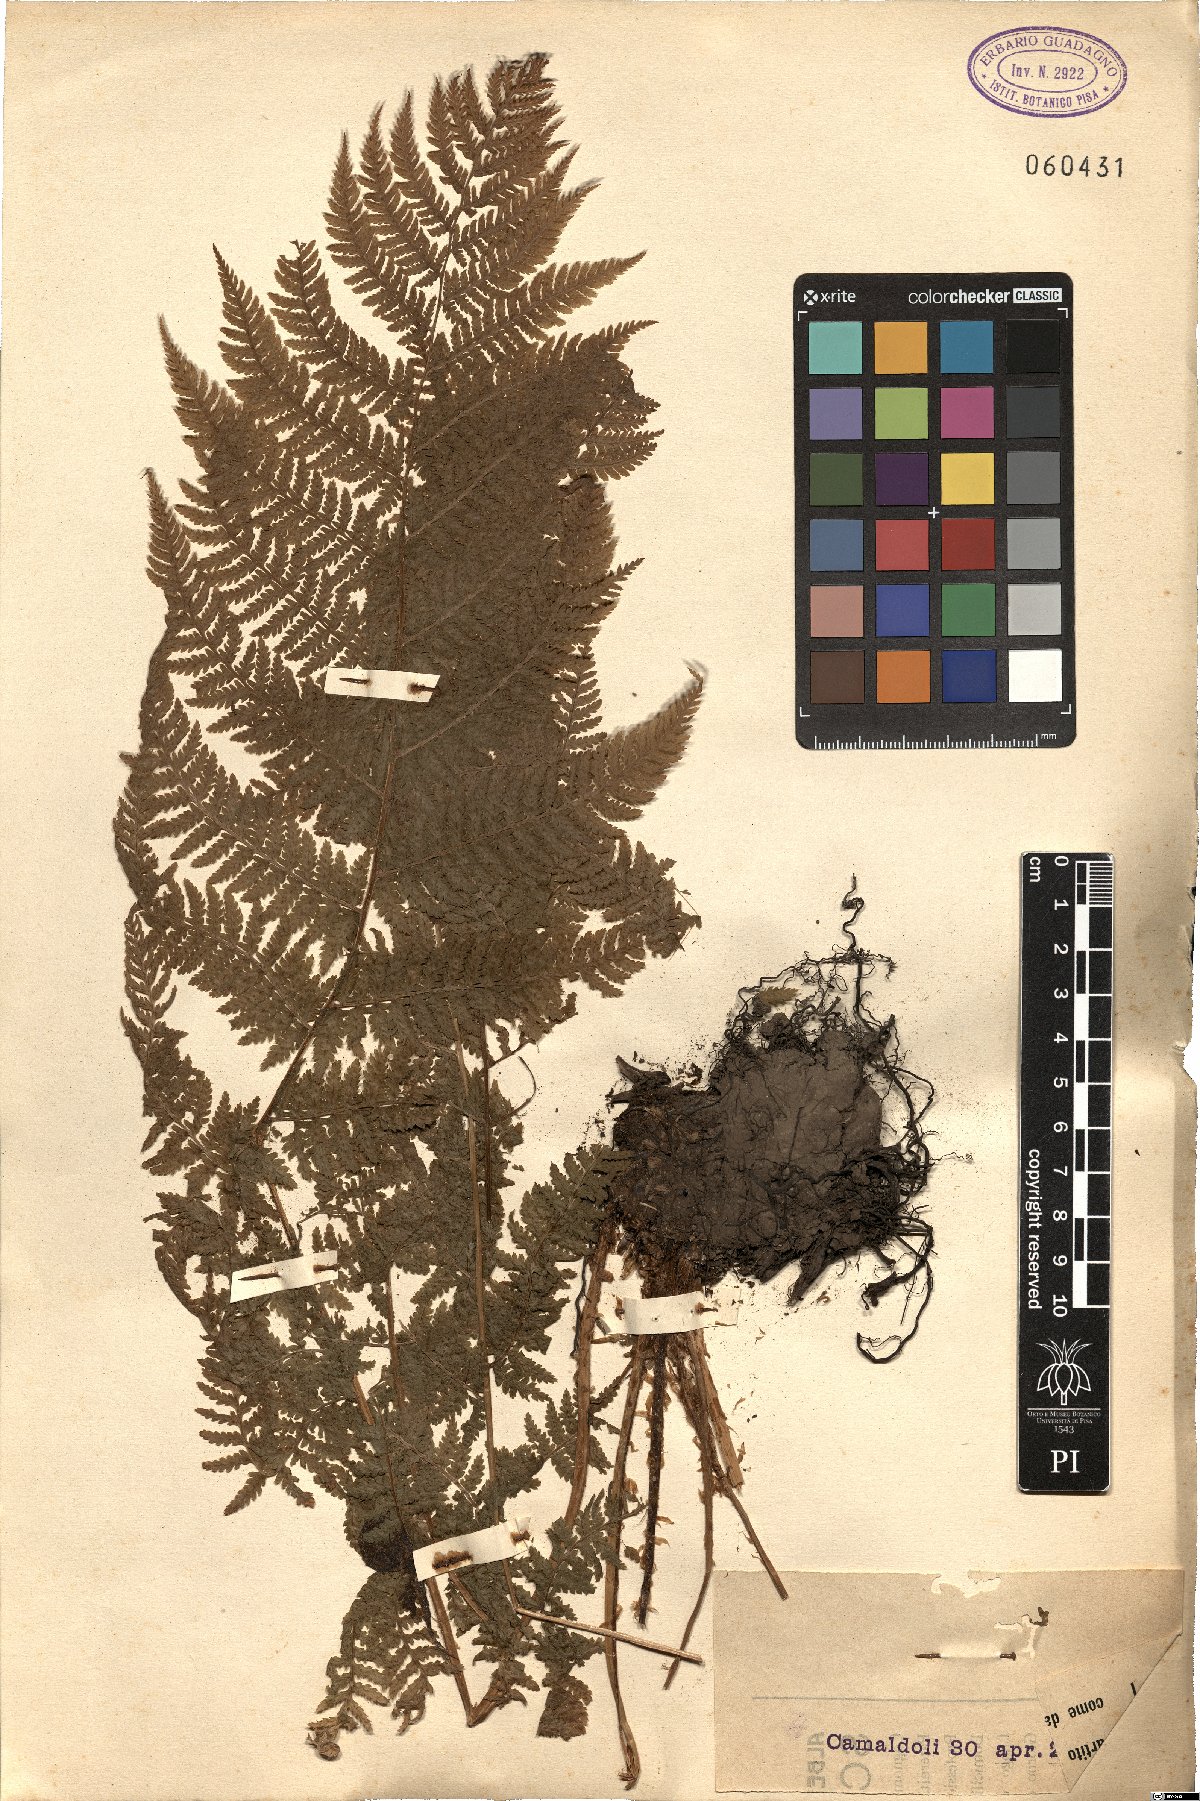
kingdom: Plantae
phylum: Tracheophyta
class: Polypodiopsida
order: Polypodiales
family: Dryopteridaceae
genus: Dryopteris
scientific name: Dryopteris
